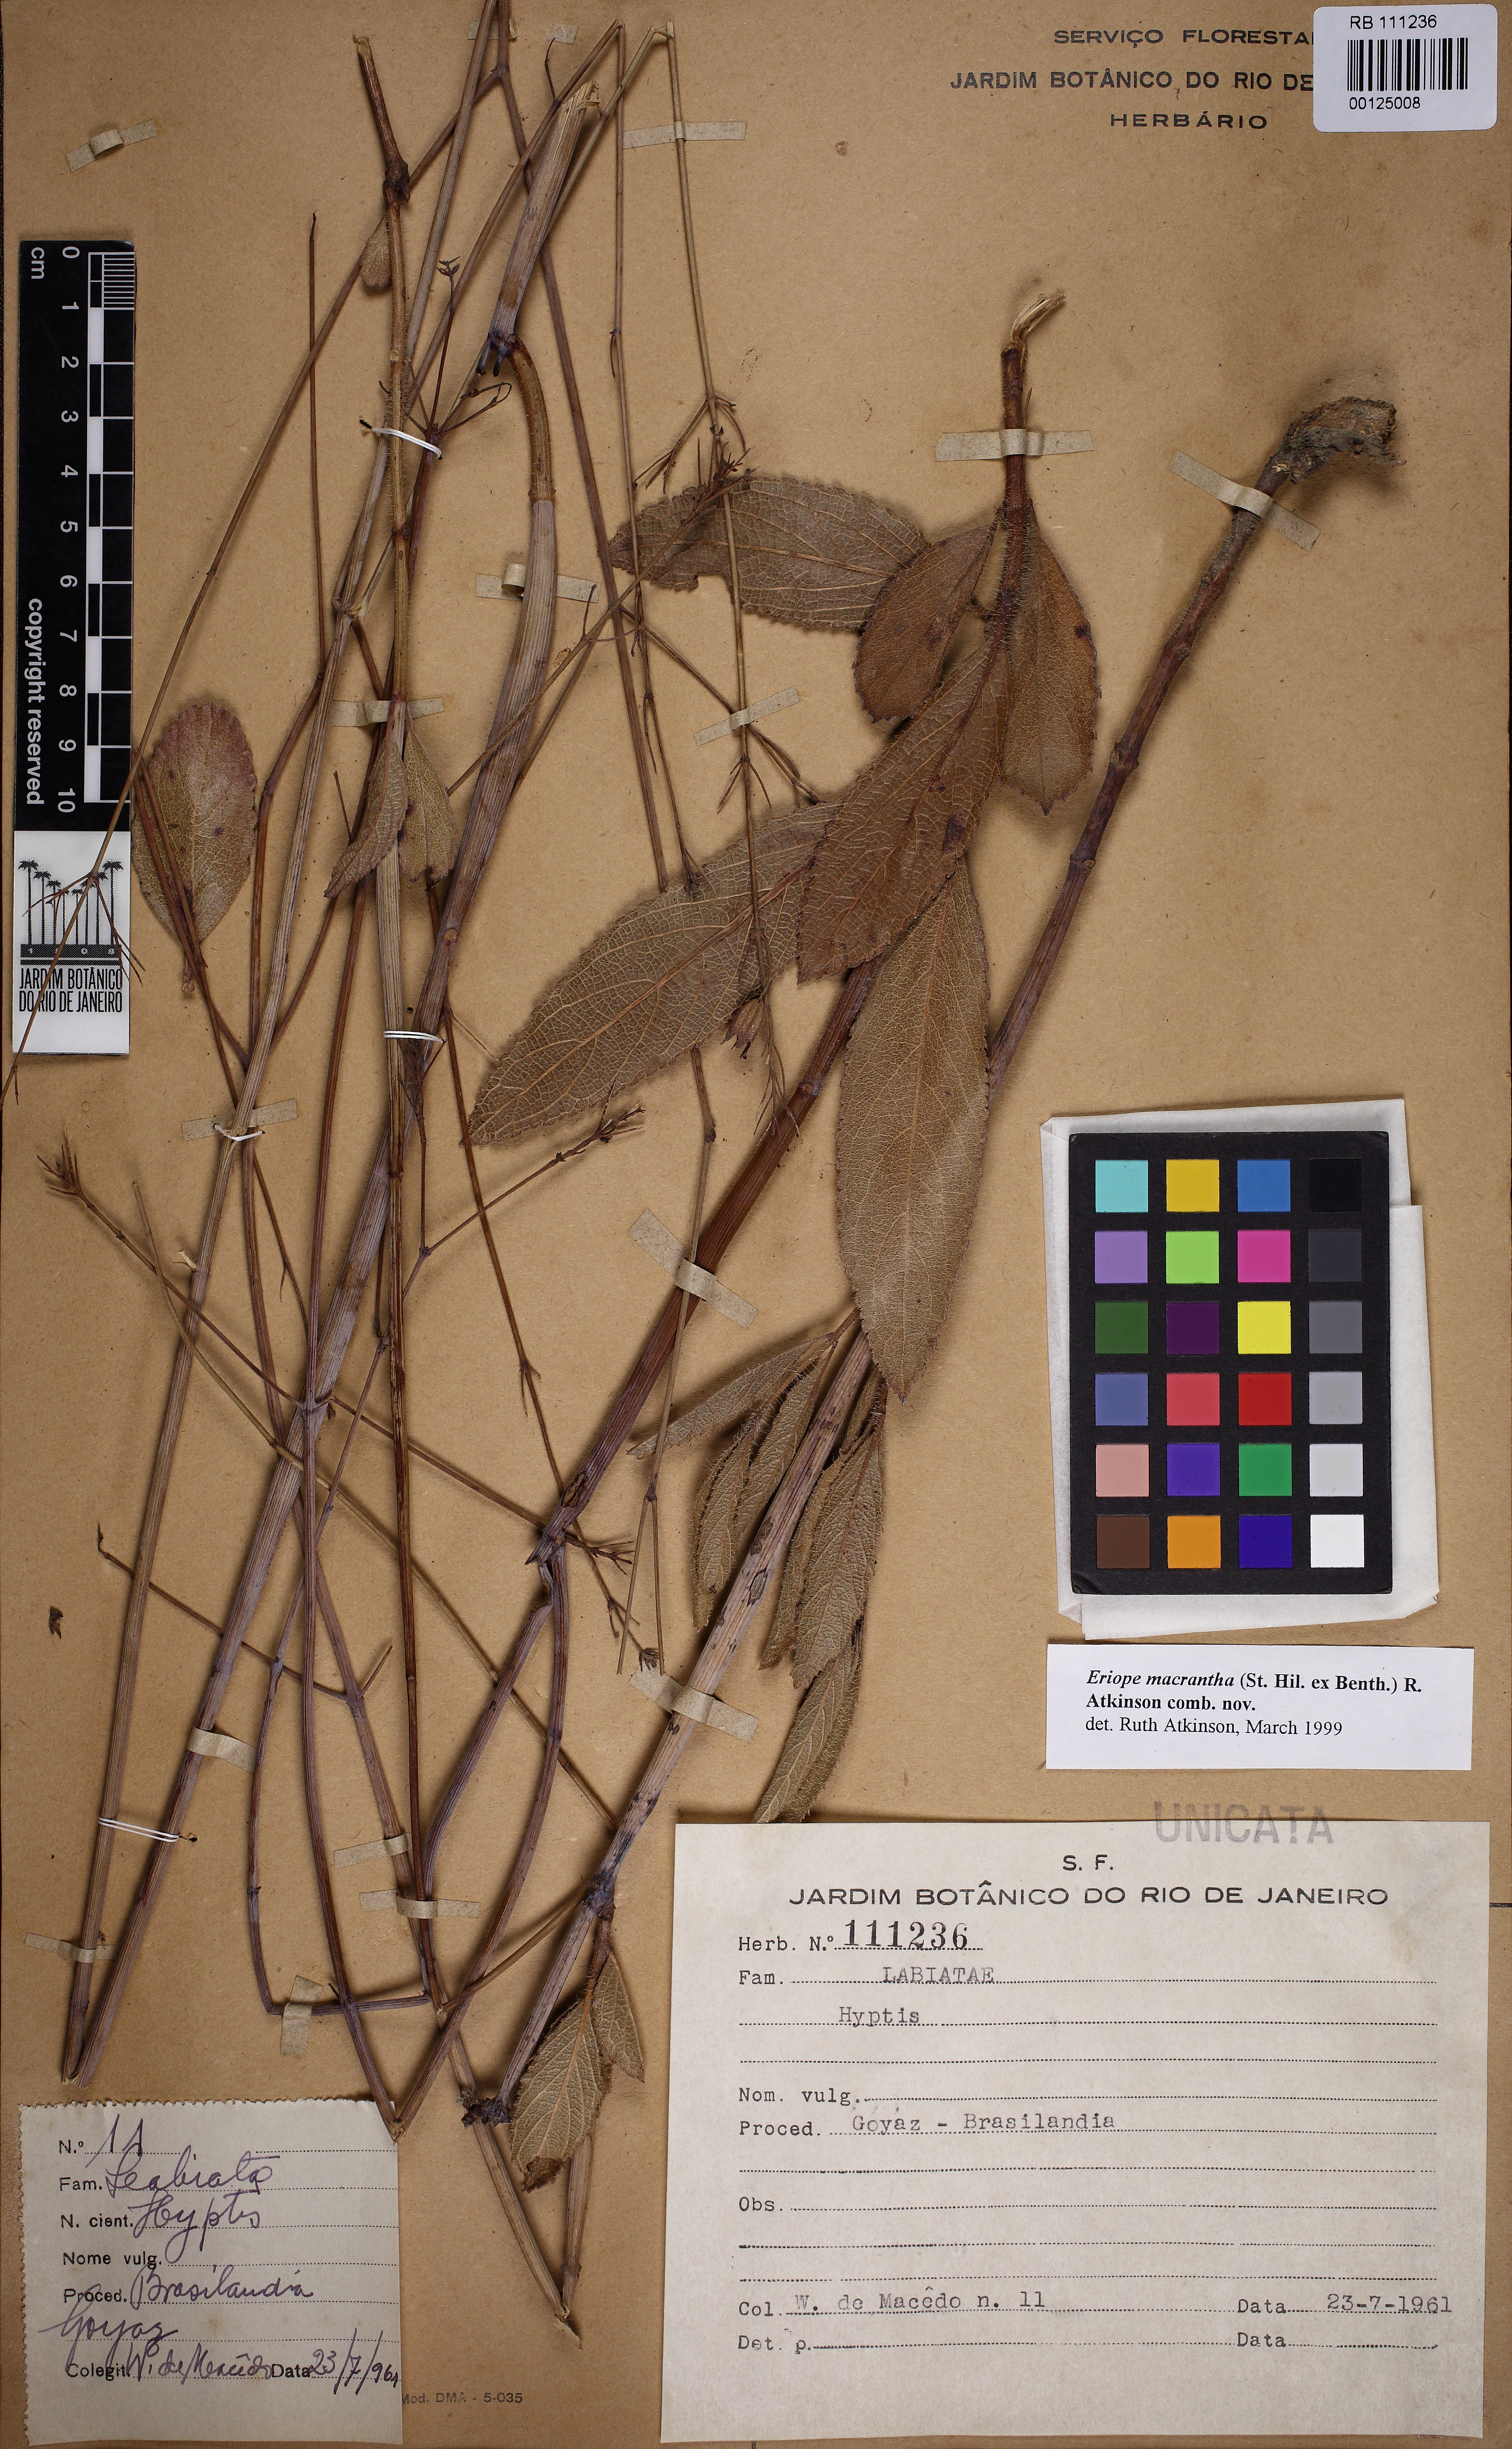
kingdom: Plantae
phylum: Tracheophyta
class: Magnoliopsida
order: Lamiales
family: Lamiaceae
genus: Hypenia
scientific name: Hypenia micrantha
